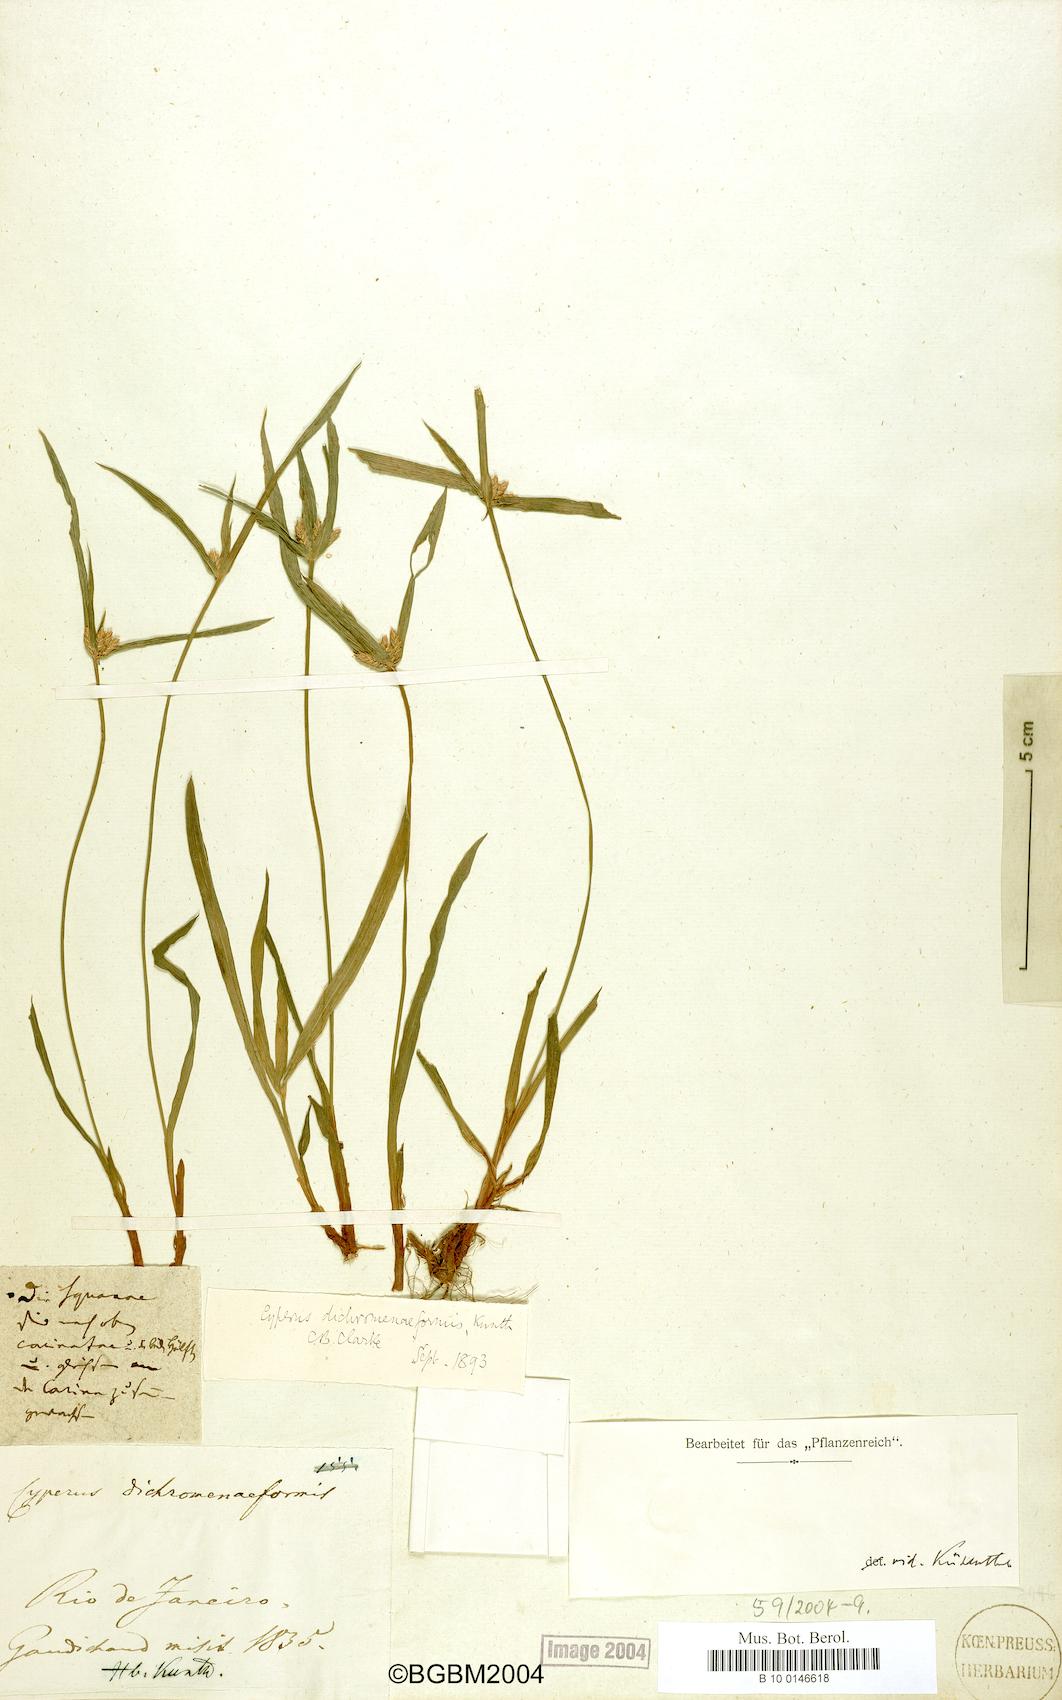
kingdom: Plantae
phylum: Tracheophyta
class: Liliopsida
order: Poales
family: Cyperaceae
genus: Cyperus
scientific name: Cyperus dichromeniformis
